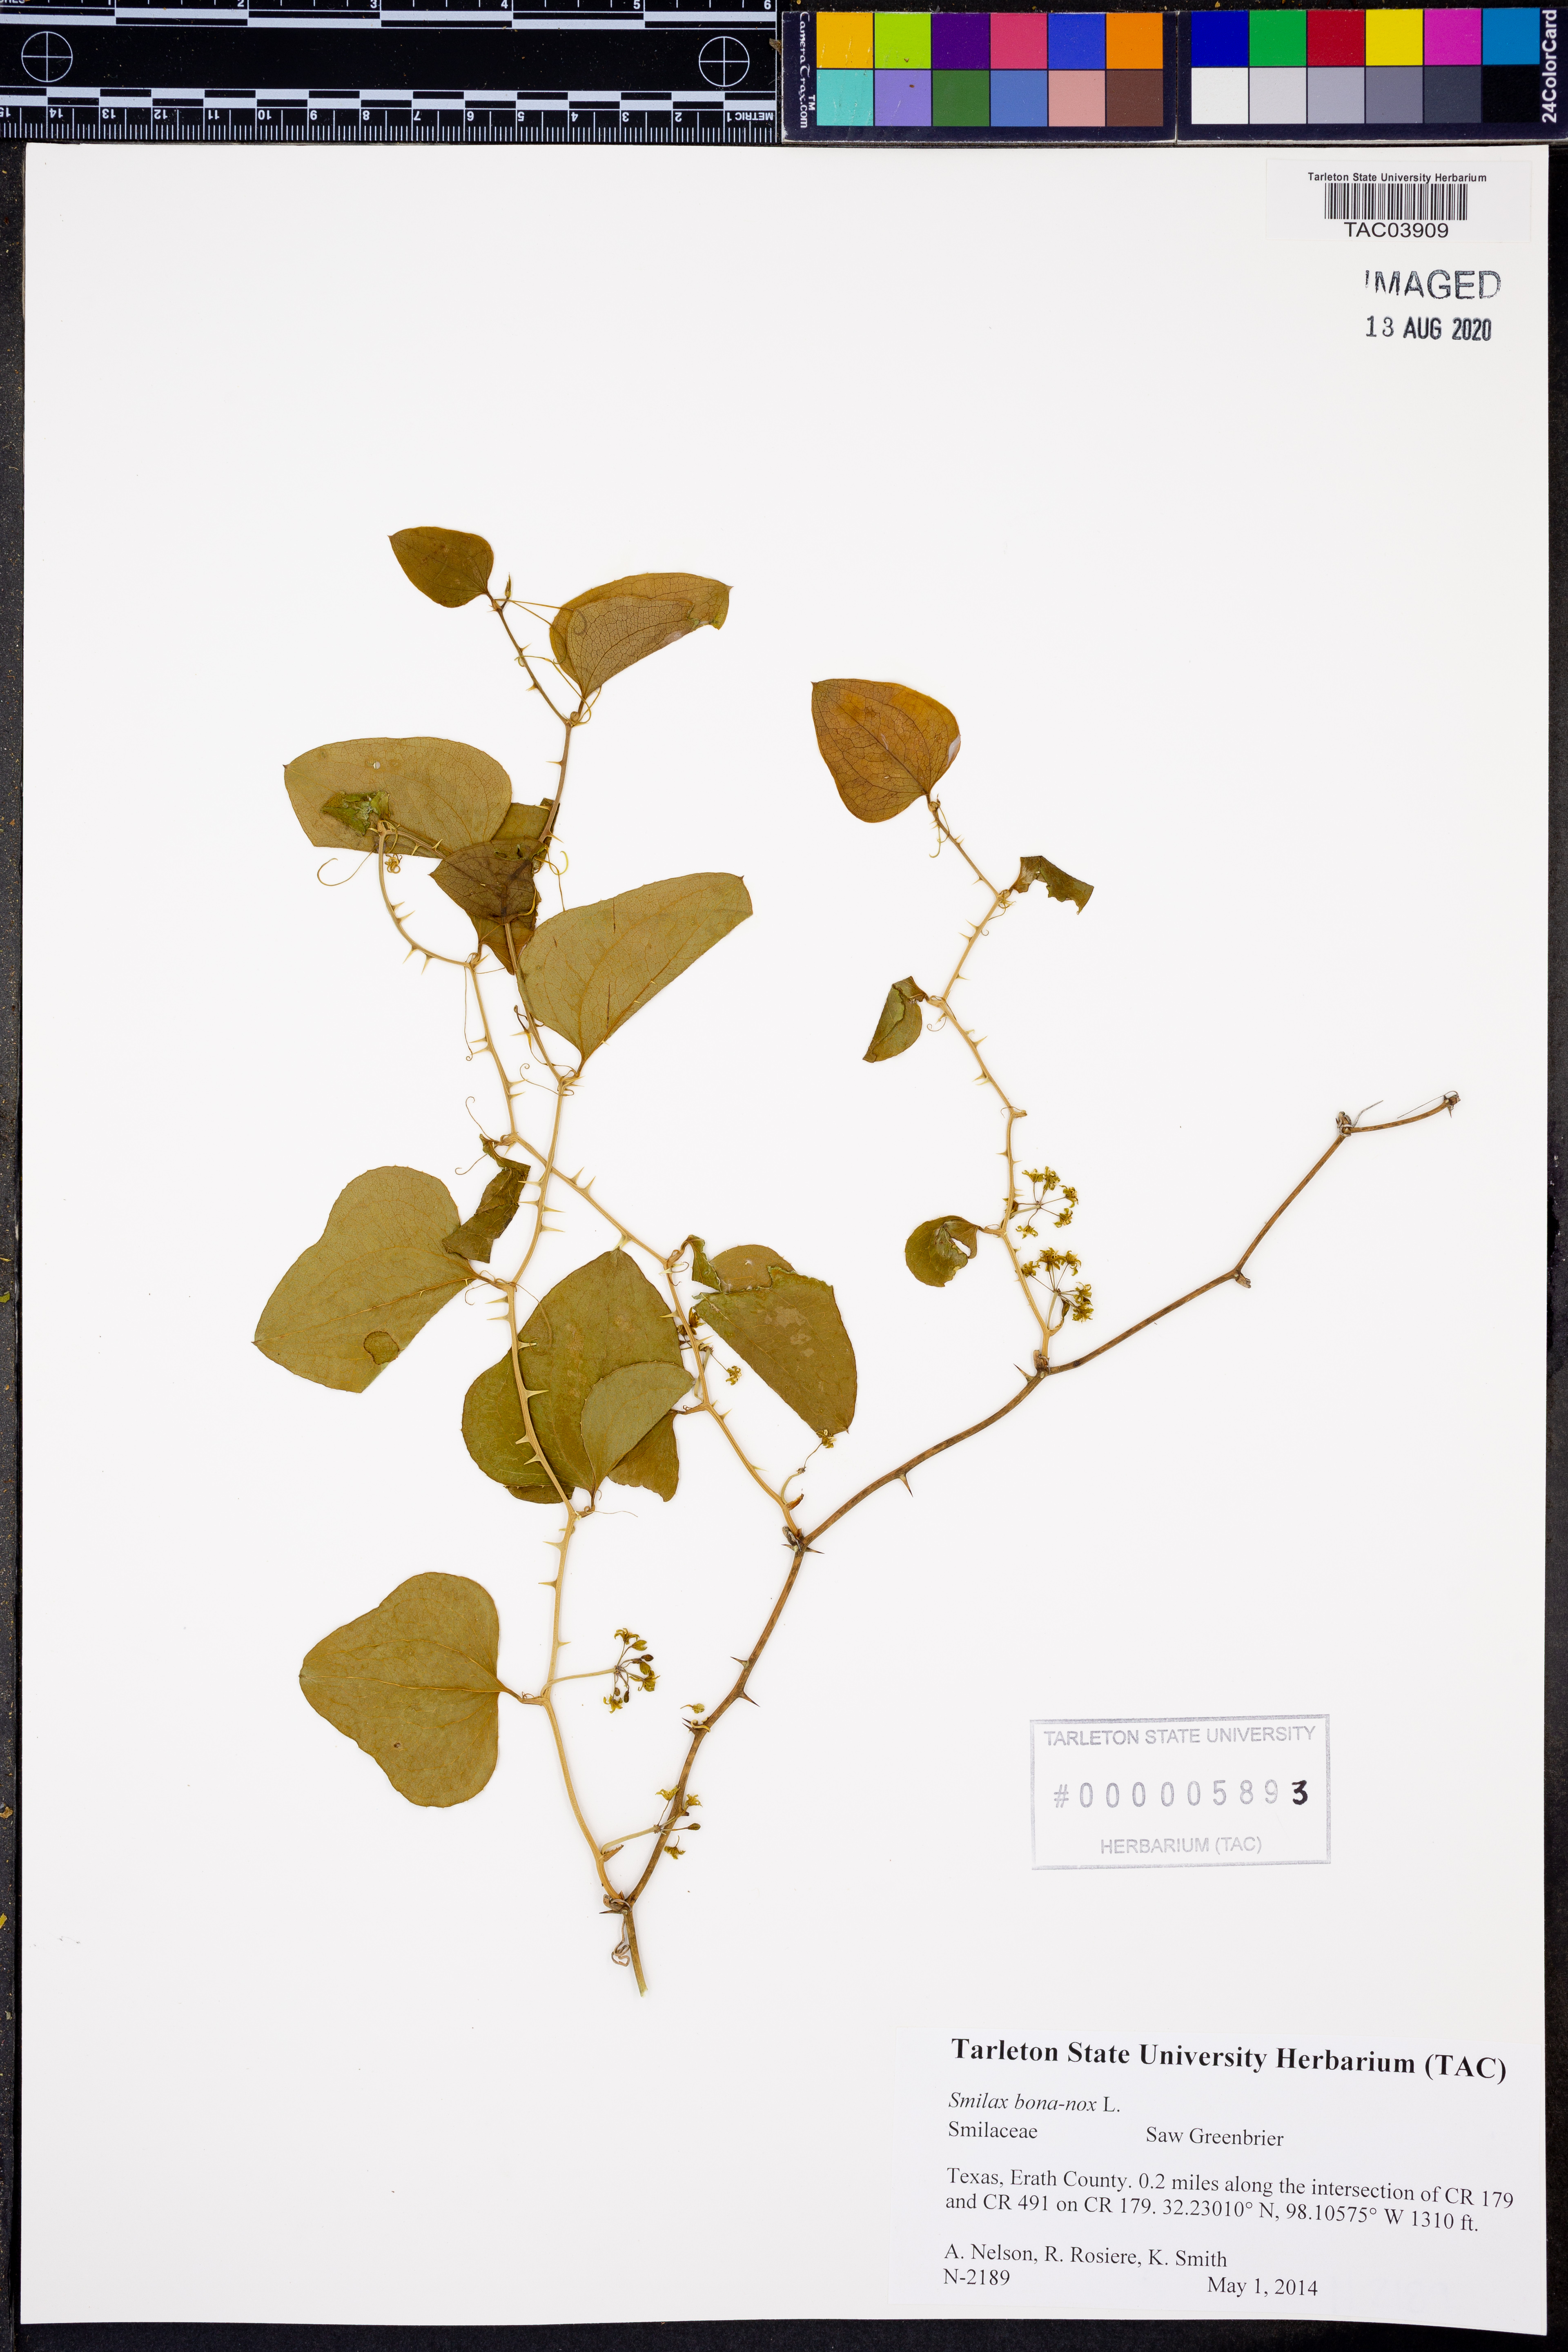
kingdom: Plantae
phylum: Tracheophyta
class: Liliopsida
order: Liliales
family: Smilacaceae
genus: Smilax
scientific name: Smilax bona-nox
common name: Catbrier
